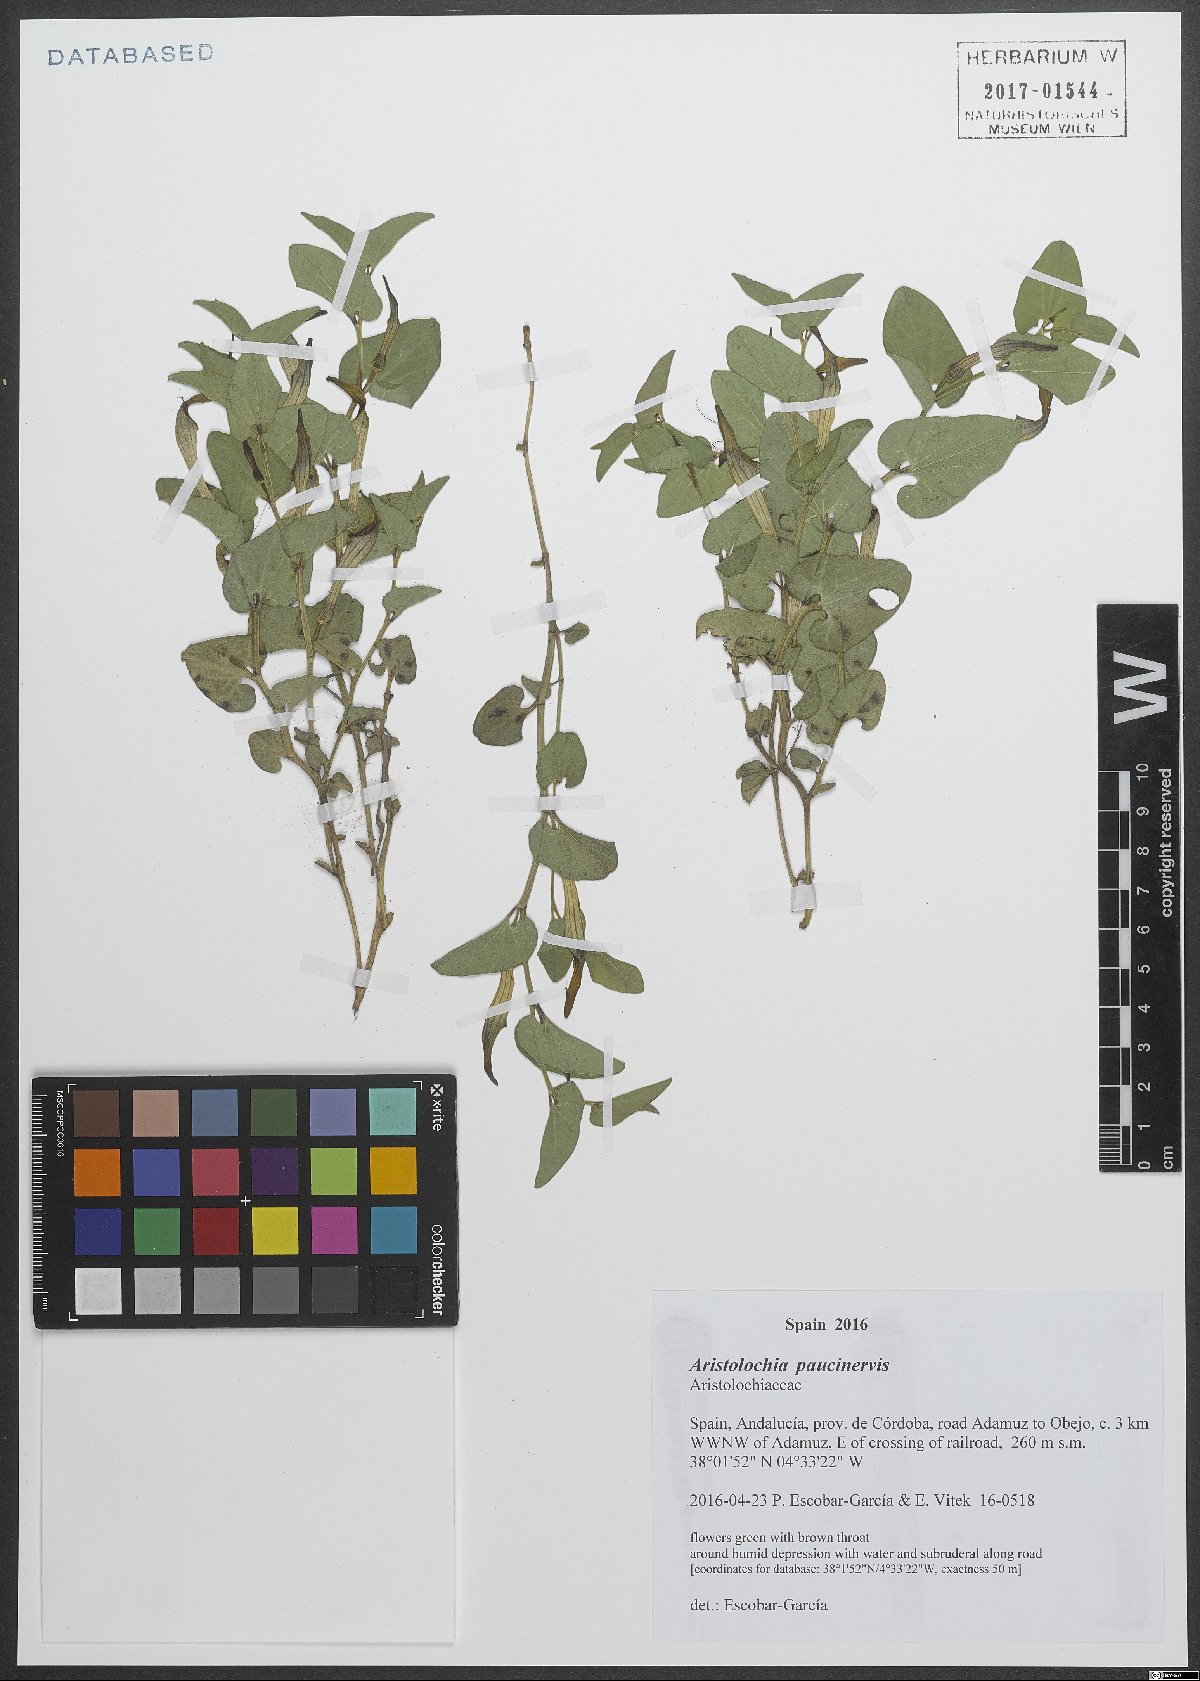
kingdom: Plantae
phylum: Tracheophyta
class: Magnoliopsida
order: Piperales
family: Aristolochiaceae
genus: Aristolochia
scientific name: Aristolochia paucinervis
